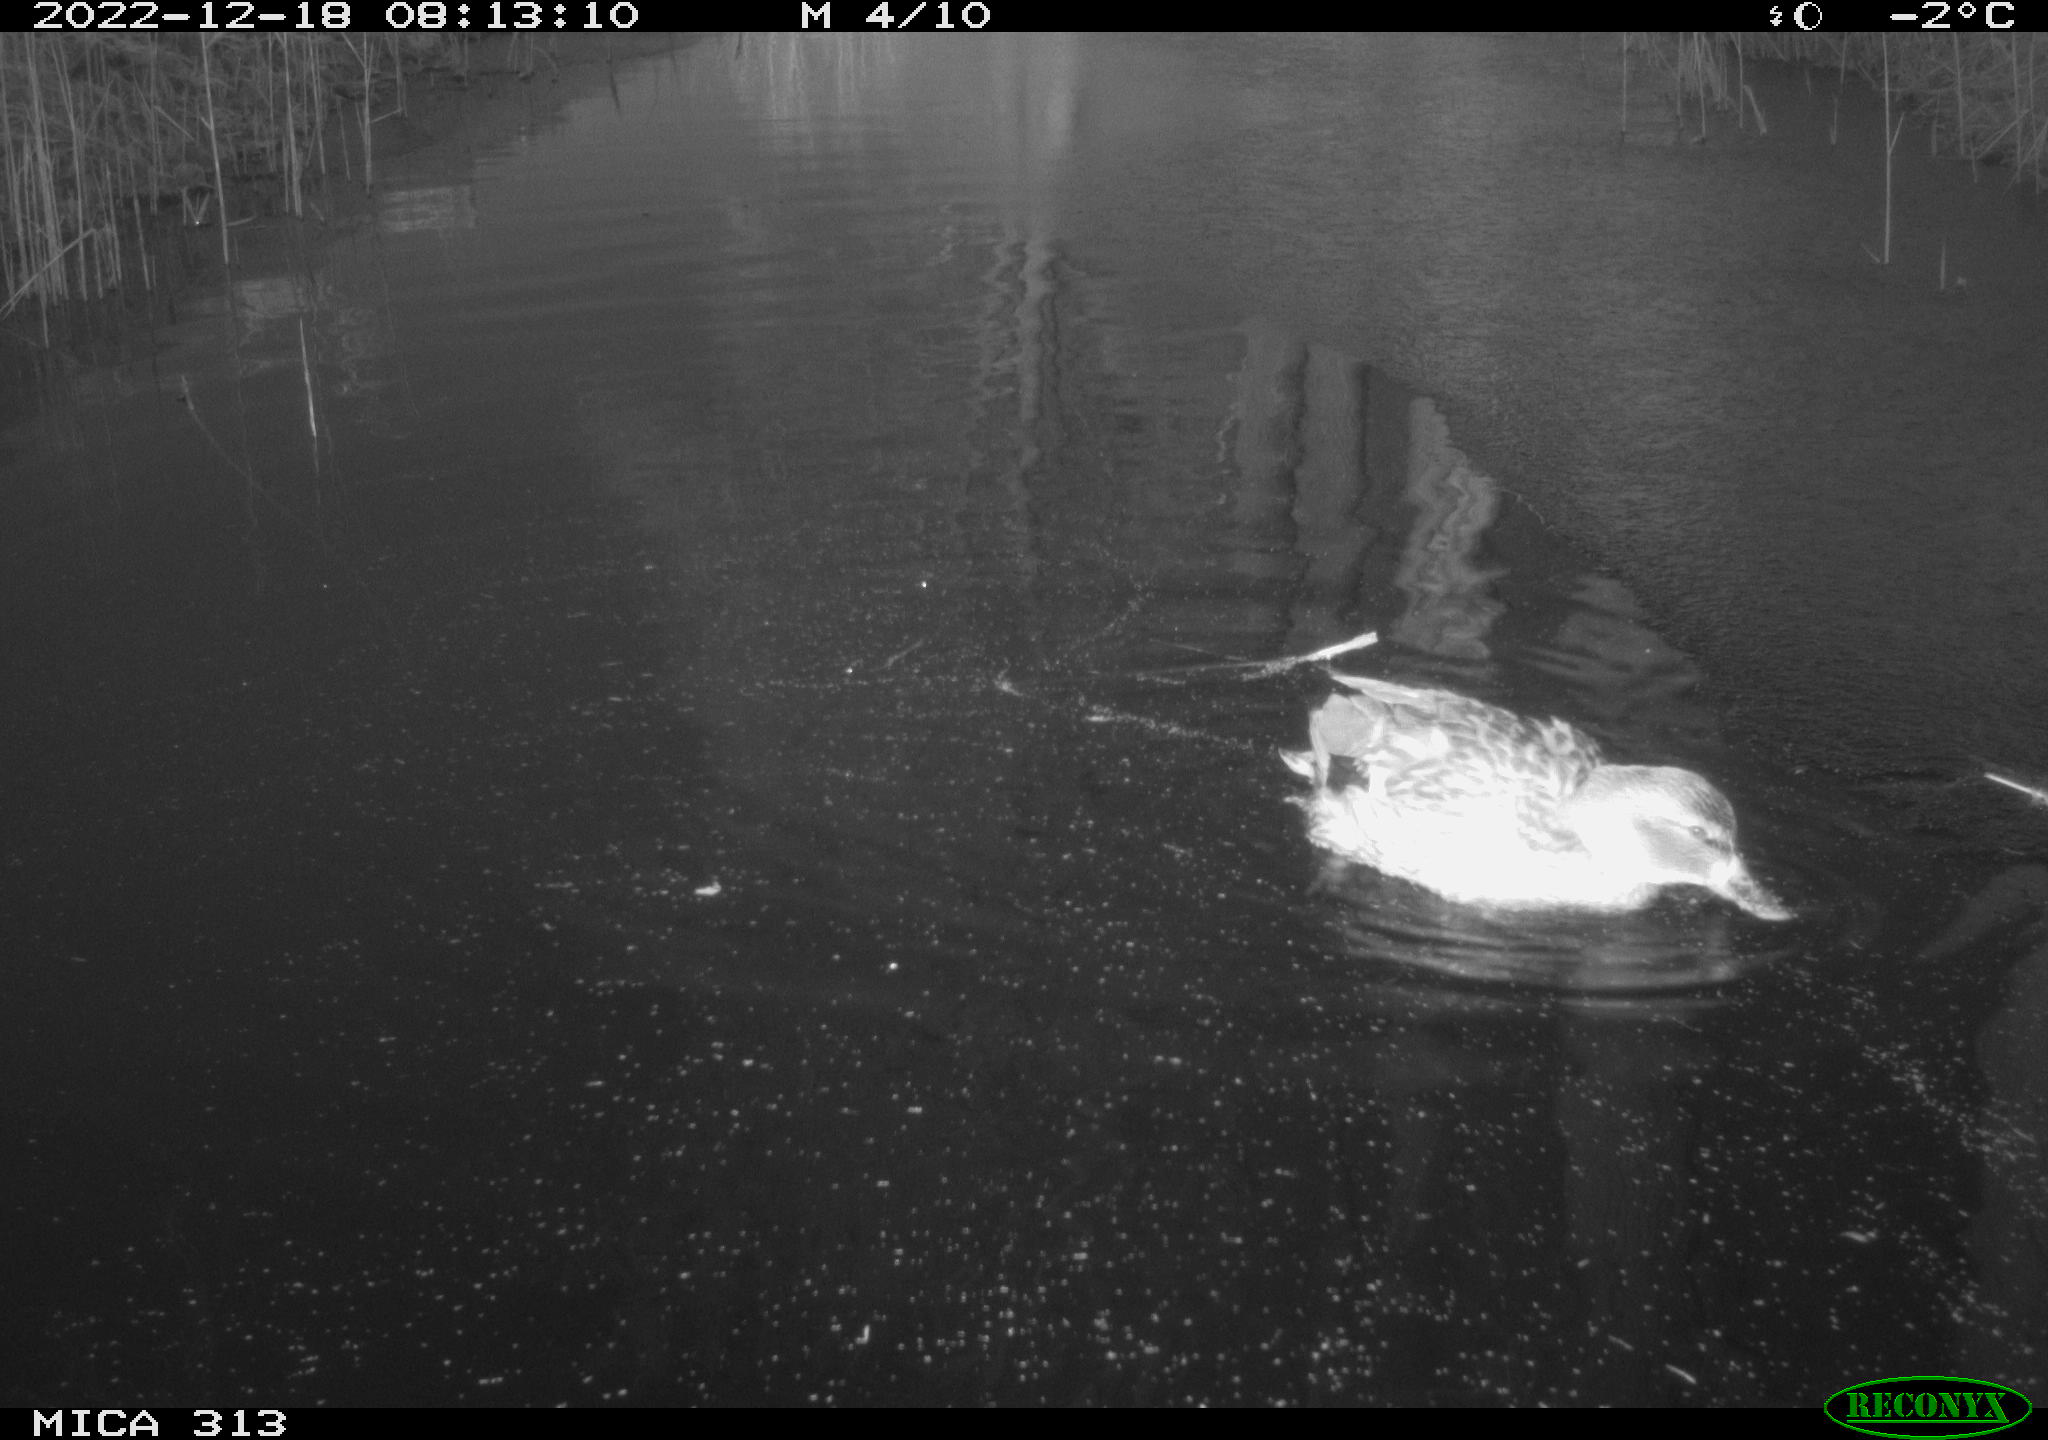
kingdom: Animalia
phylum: Chordata
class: Aves
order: Anseriformes
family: Anatidae
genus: Anas
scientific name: Anas
